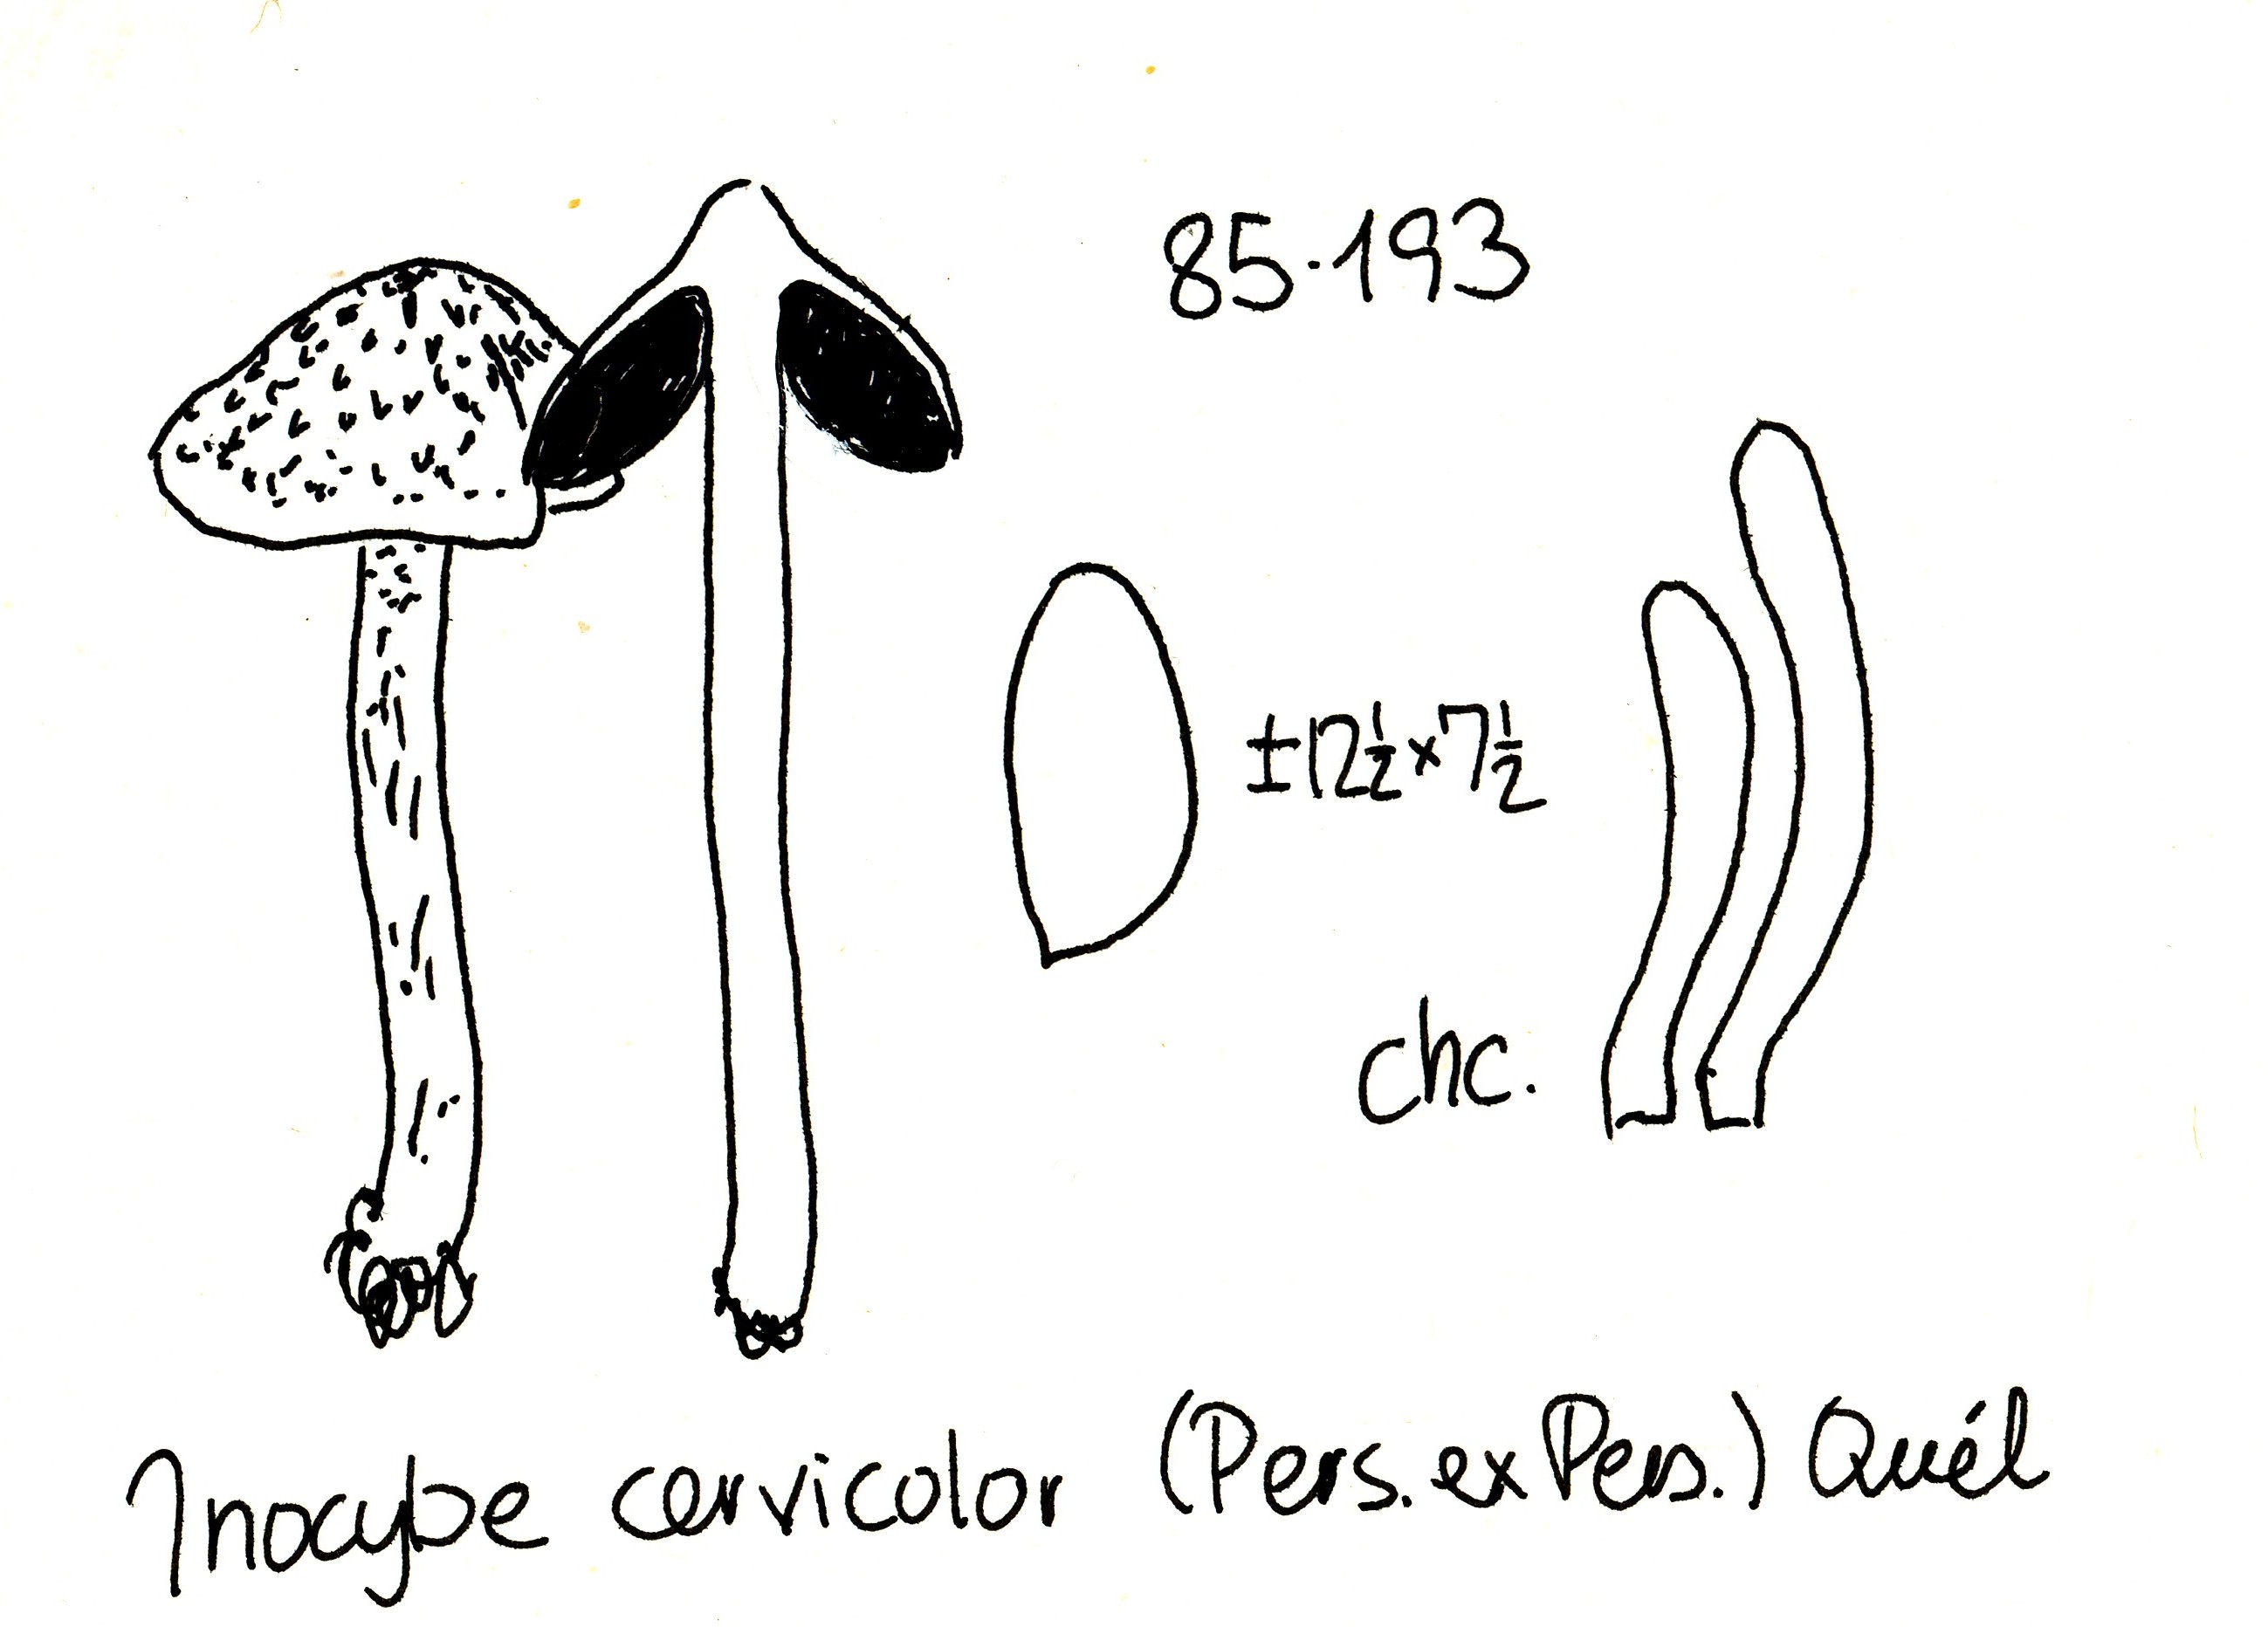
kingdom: Fungi
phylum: Basidiomycota
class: Agaricomycetes
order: Agaricales
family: Inocybaceae
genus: Inosperma
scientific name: Inosperma cervicolor
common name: hjortebrun trævlhat
